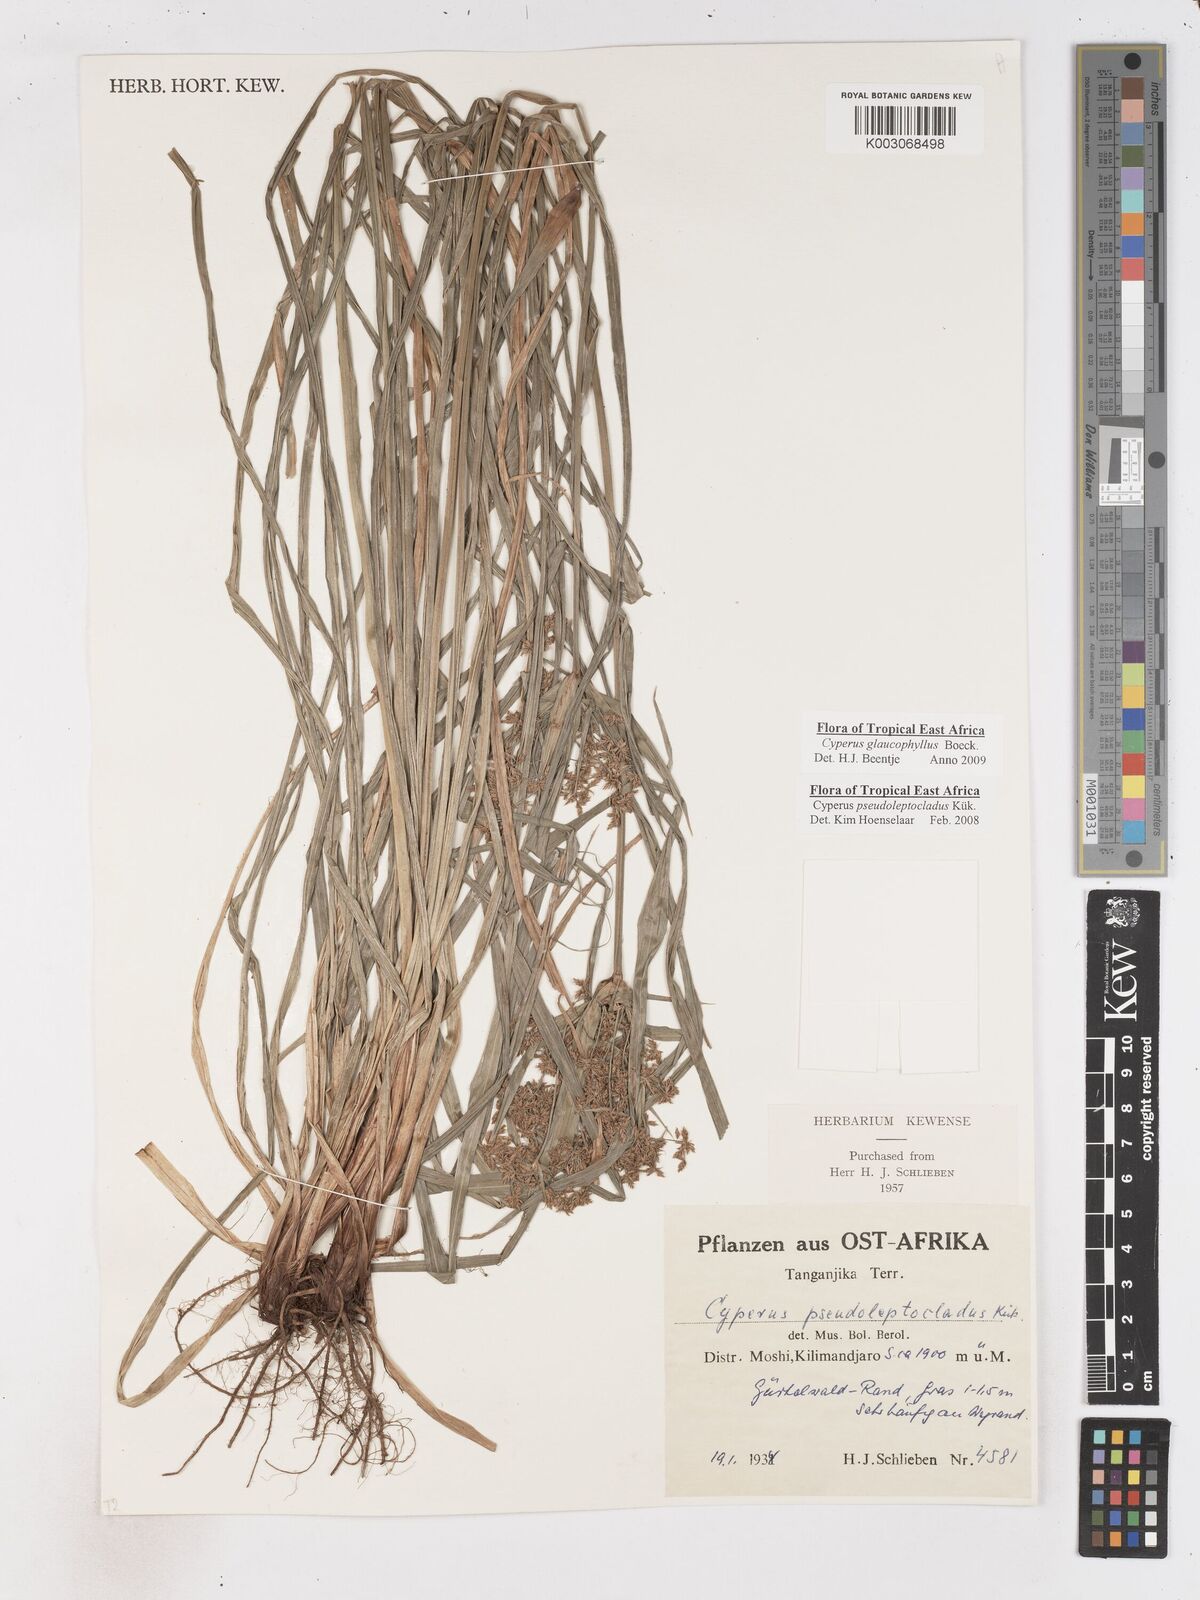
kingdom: Plantae
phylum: Tracheophyta
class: Liliopsida
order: Poales
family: Cyperaceae
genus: Cyperus
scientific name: Cyperus glaucophyllus
